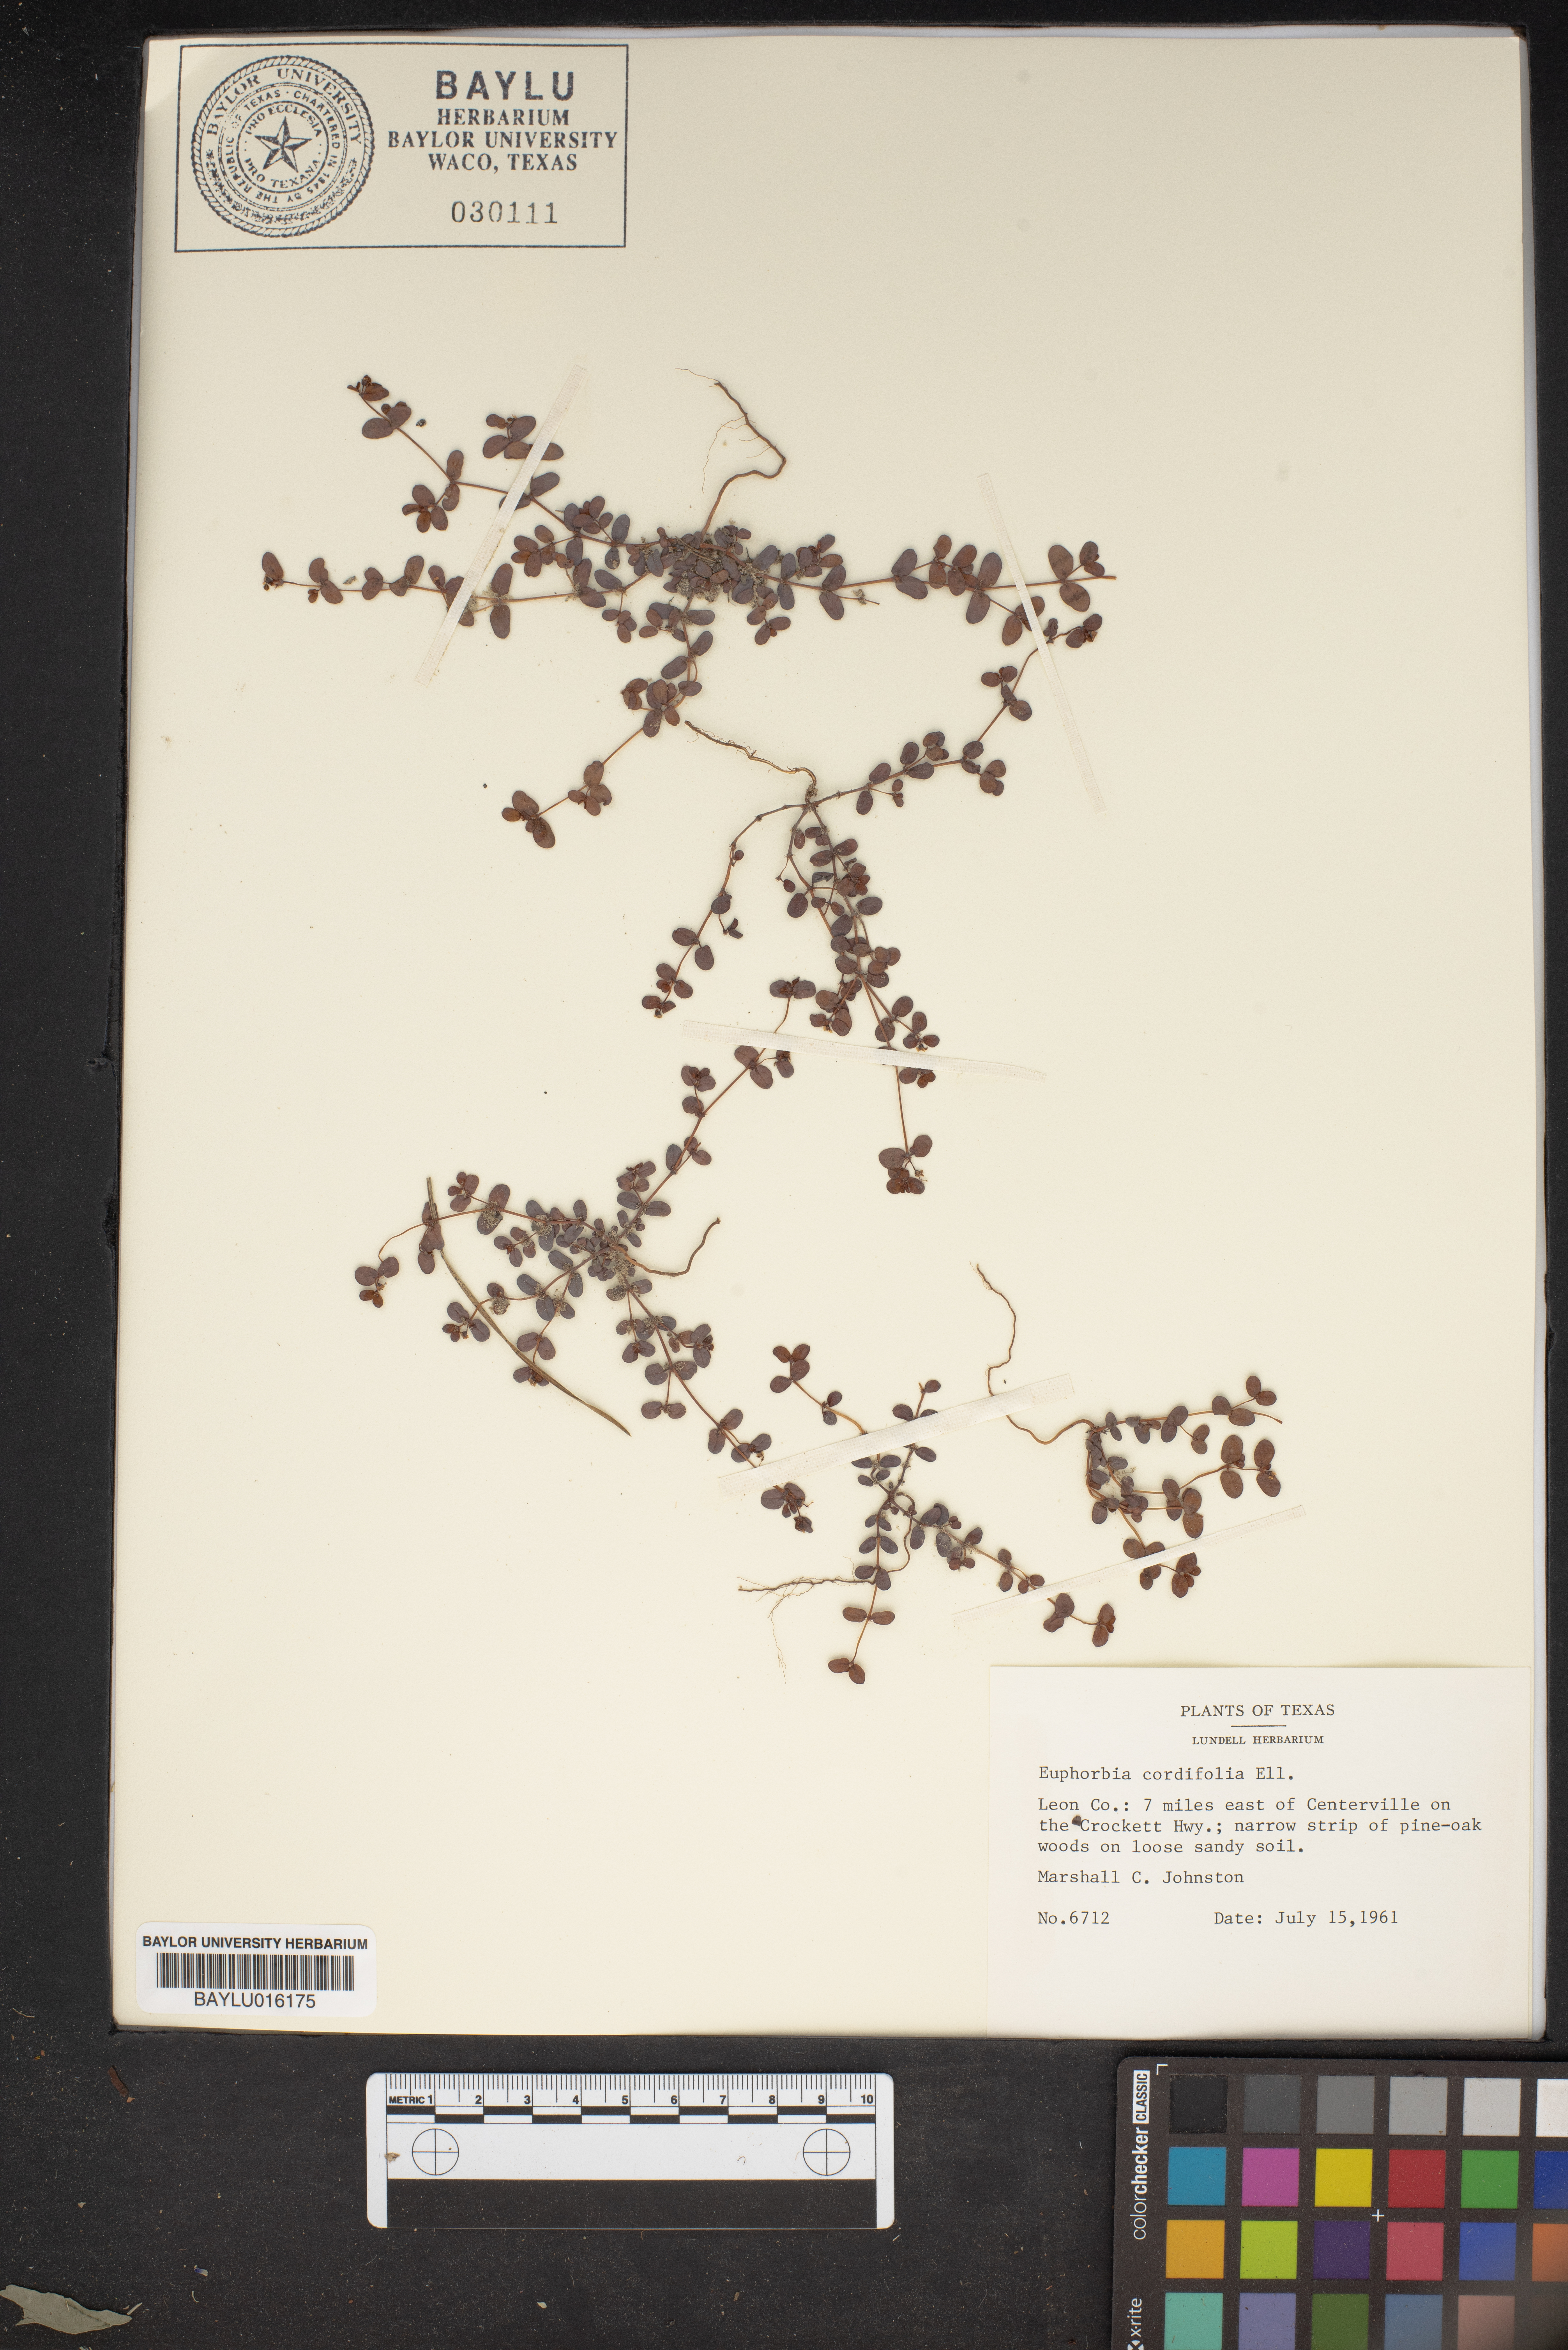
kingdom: Plantae
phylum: Tracheophyta
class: Magnoliopsida
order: Malpighiales
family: Euphorbiaceae
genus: Euphorbia
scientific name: Euphorbia cordifolia
